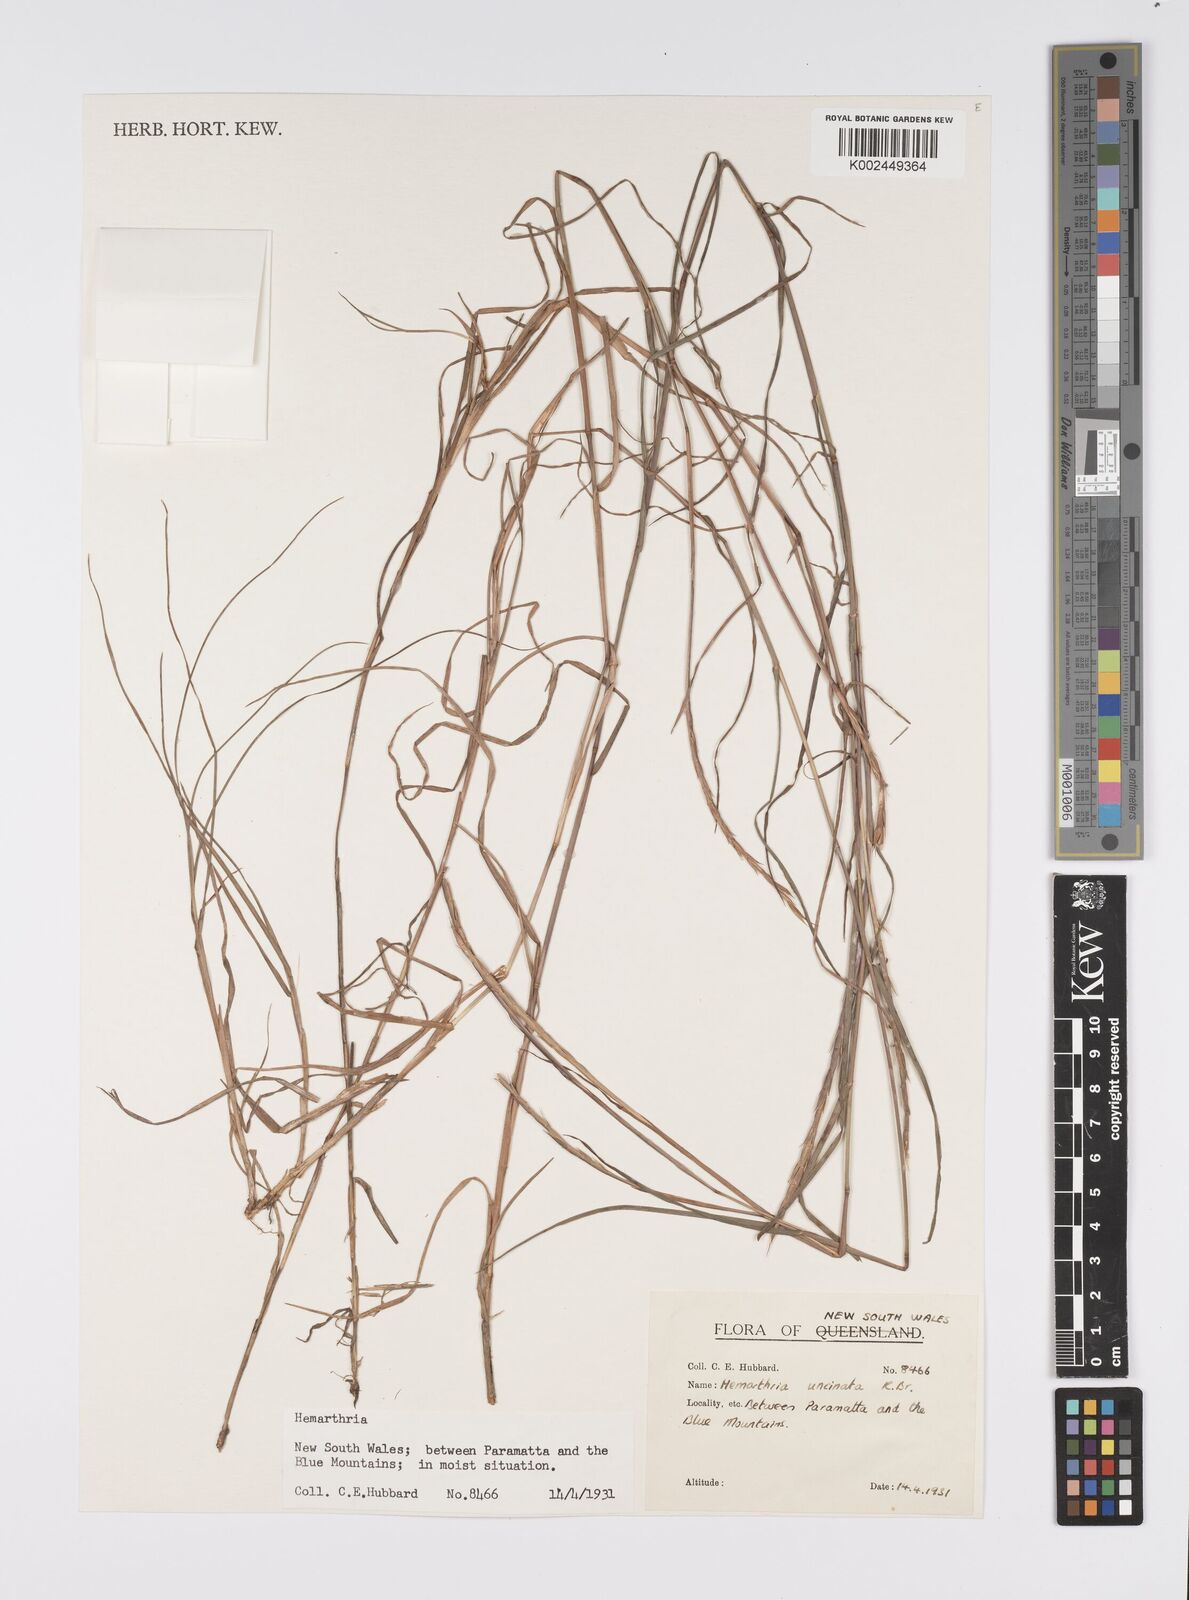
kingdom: Plantae
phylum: Tracheophyta
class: Liliopsida
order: Poales
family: Poaceae
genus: Hemarthria
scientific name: Hemarthria uncinata
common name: Matgrass
